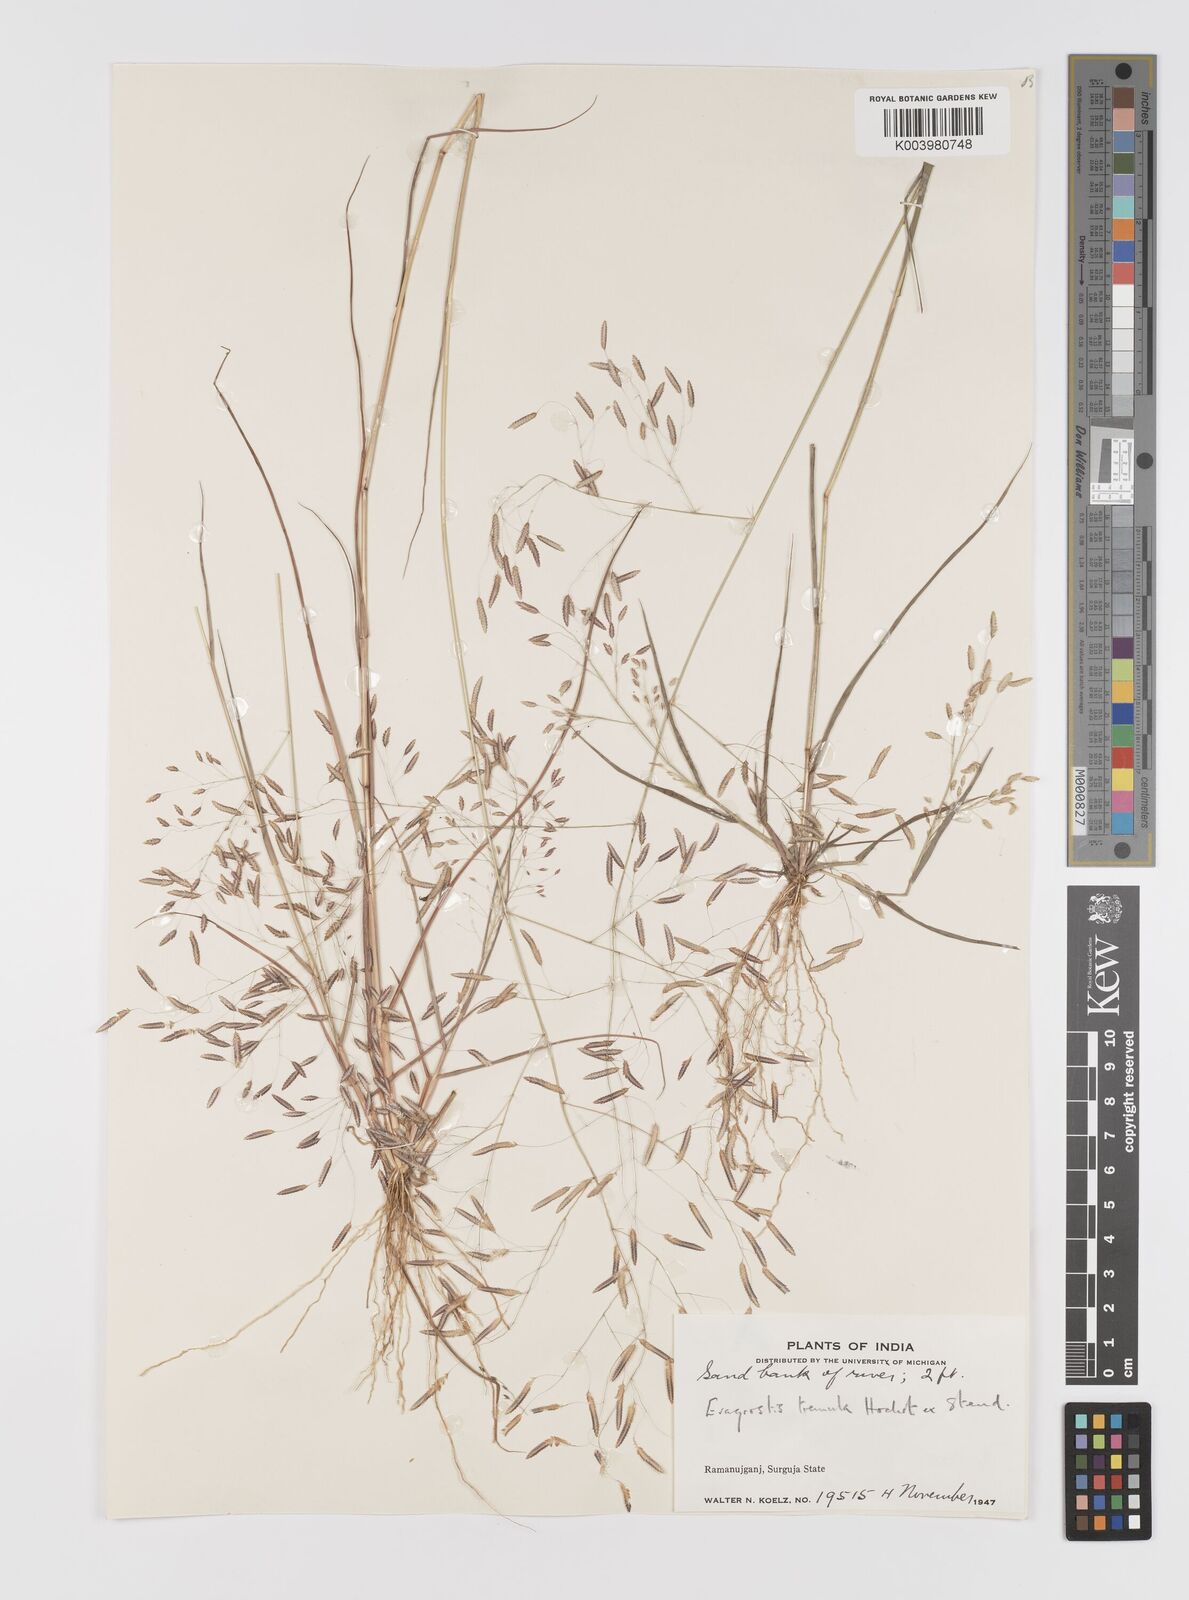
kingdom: Plantae
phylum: Tracheophyta
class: Liliopsida
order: Poales
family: Poaceae
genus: Eragrostis
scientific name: Eragrostis tremula
